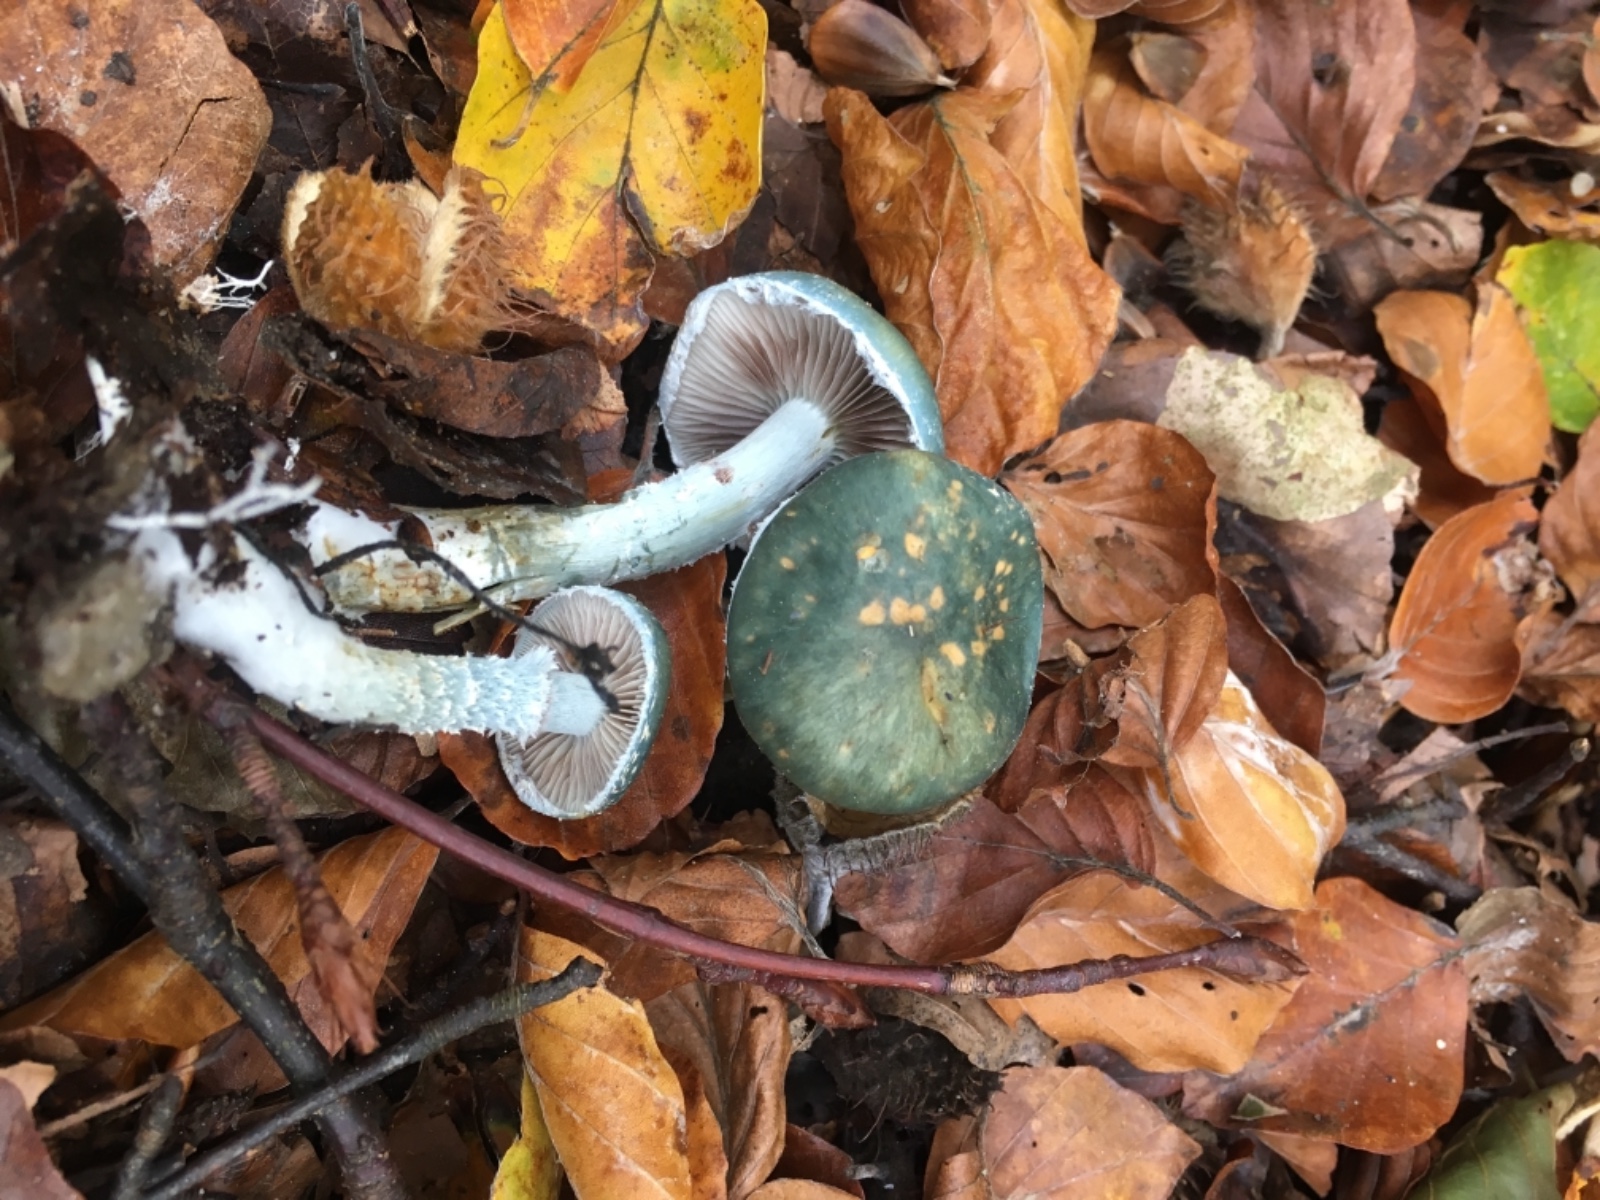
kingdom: Fungi
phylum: Basidiomycota
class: Agaricomycetes
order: Agaricales
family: Strophariaceae
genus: Stropharia
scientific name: Stropharia cyanea
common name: blågrøn bredblad
